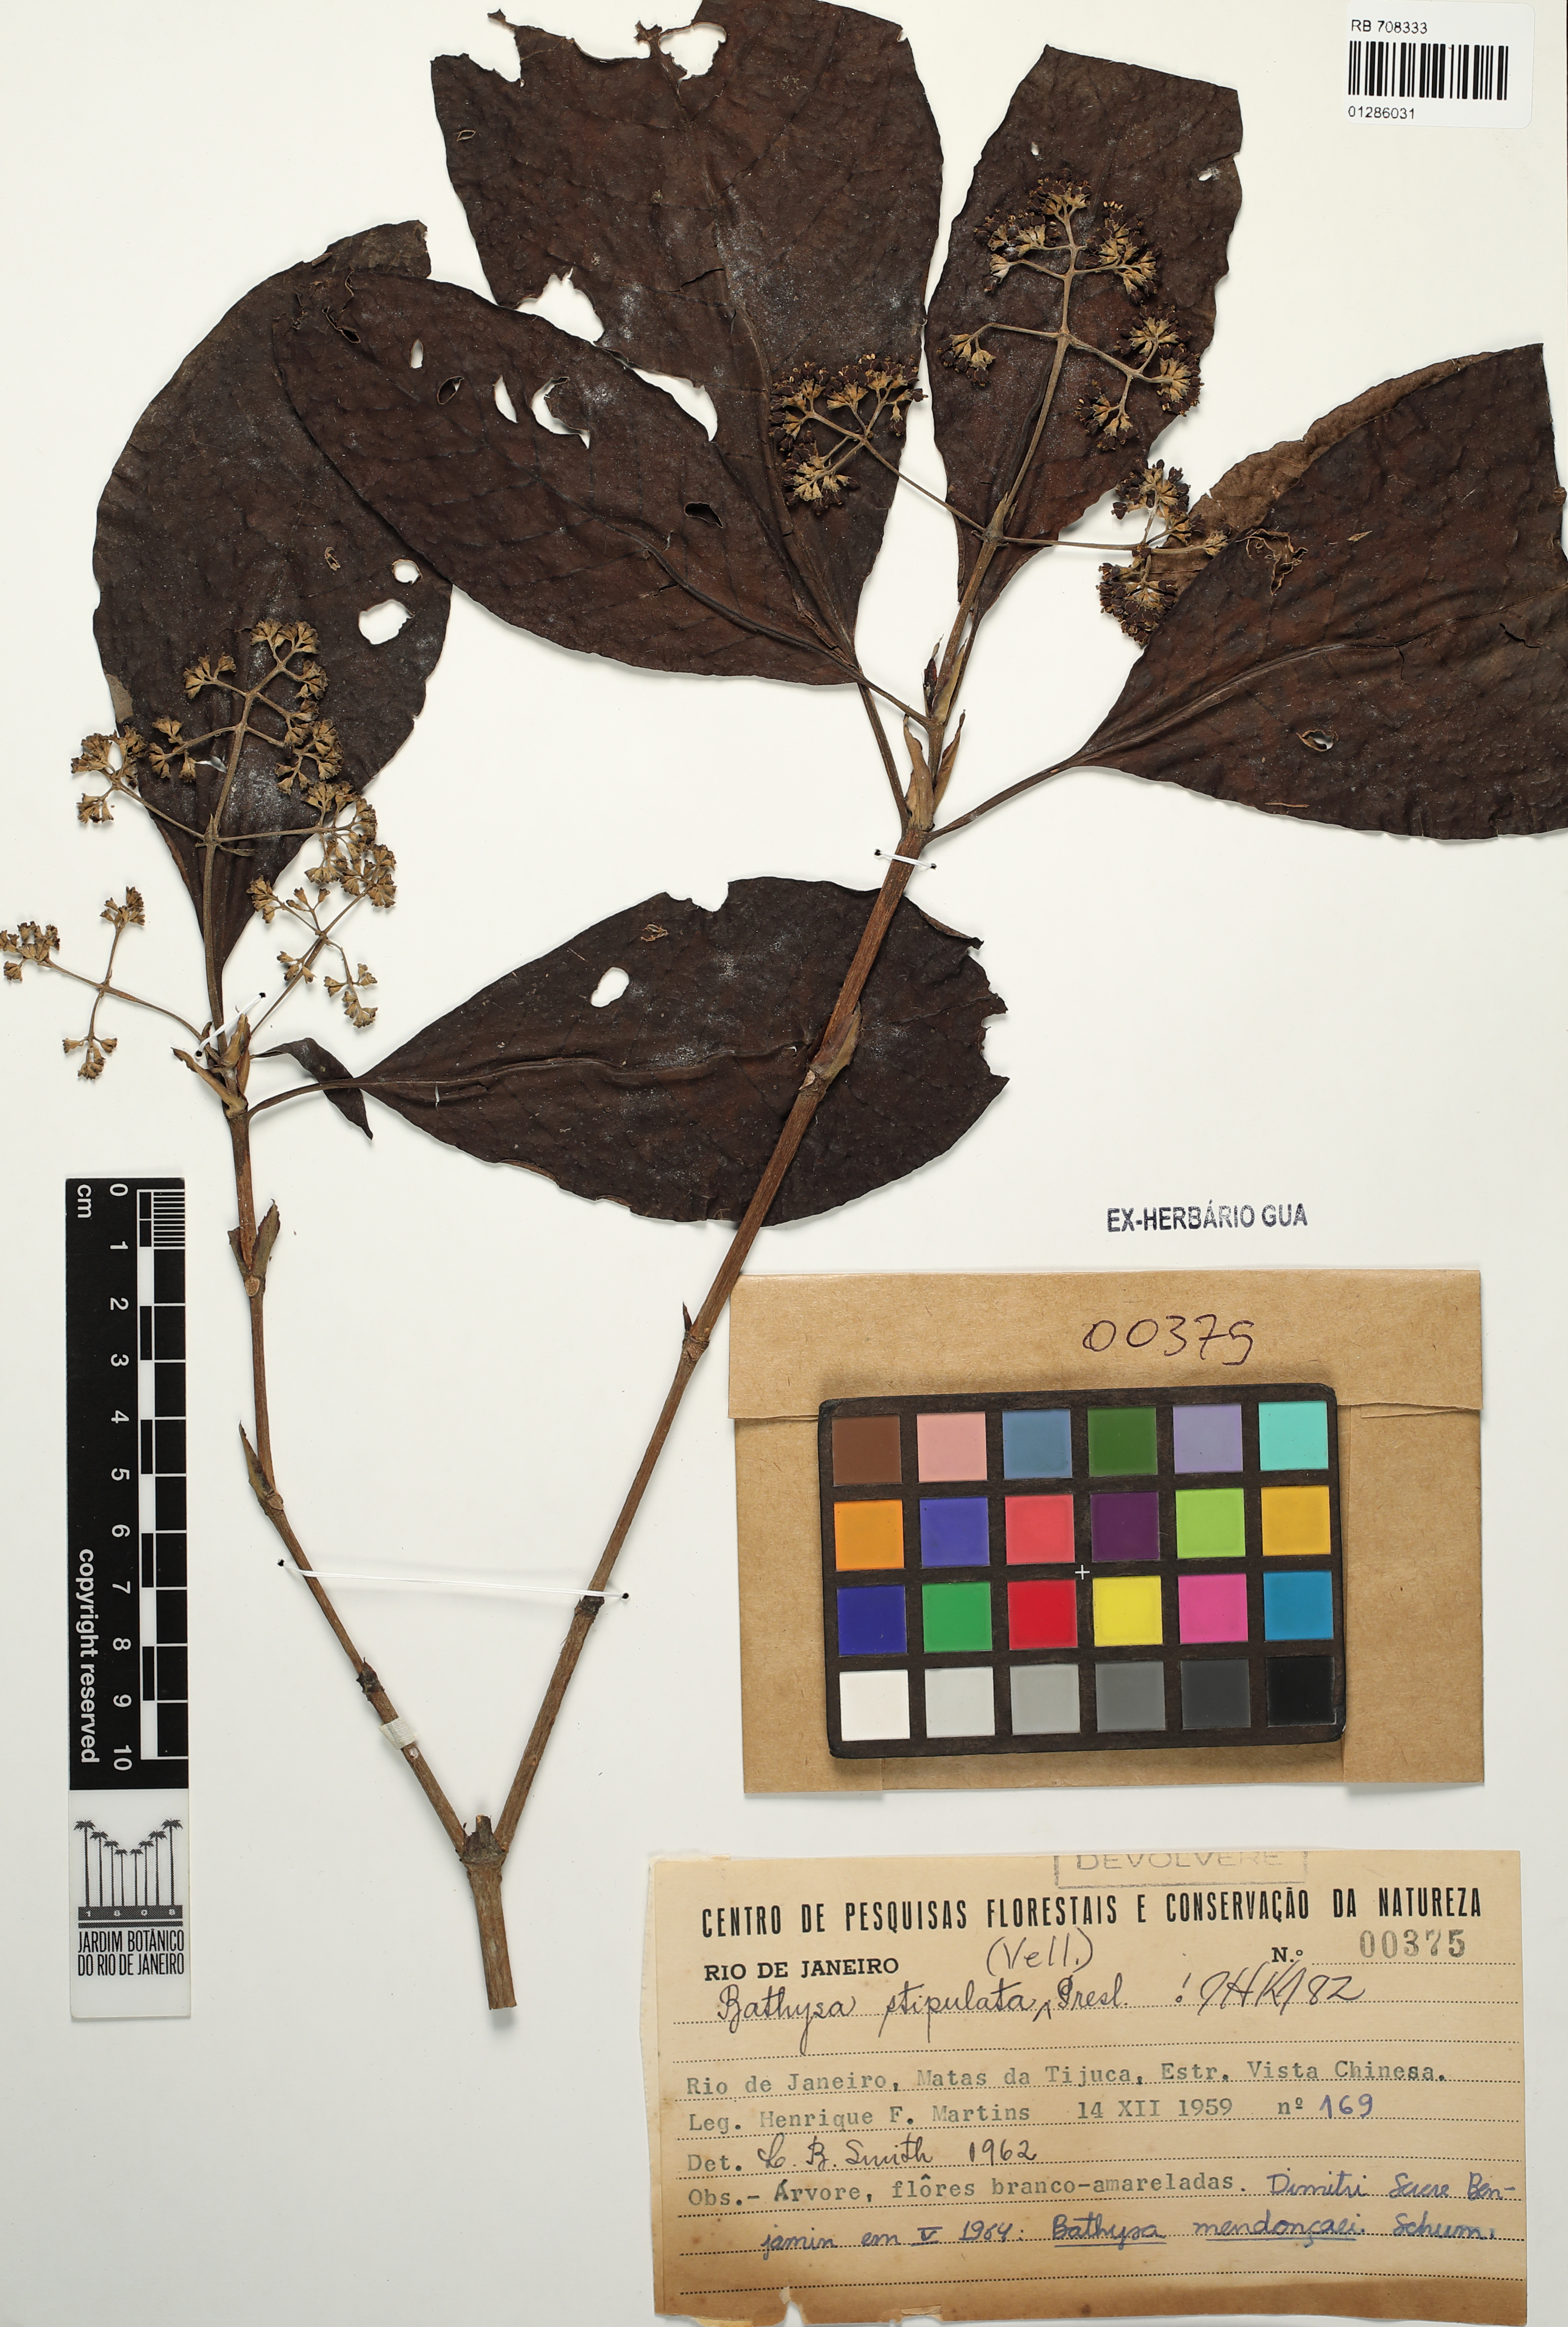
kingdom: Plantae
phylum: Tracheophyta
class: Magnoliopsida
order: Gentianales
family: Rubiaceae
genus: Bathysa
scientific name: Bathysa stipulata
